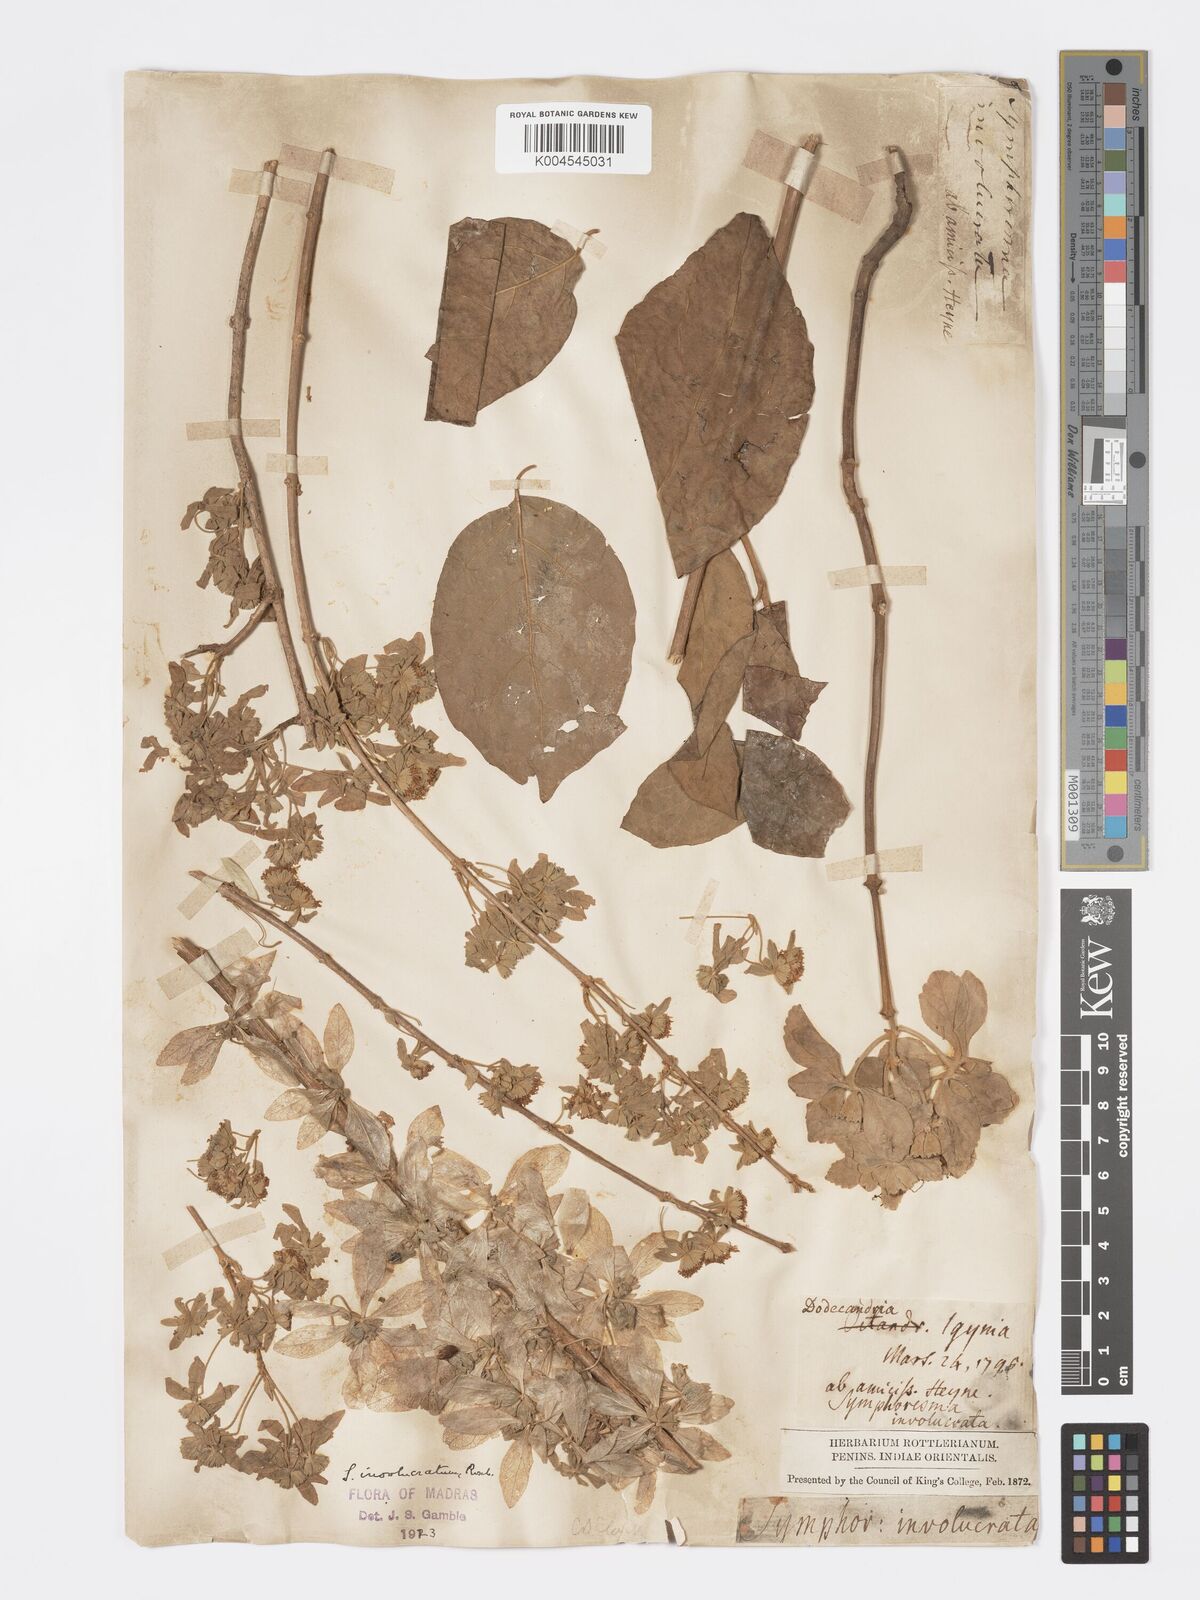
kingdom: Plantae
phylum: Tracheophyta
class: Magnoliopsida
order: Lamiales
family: Lamiaceae
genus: Symphorema
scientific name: Symphorema involucratum
